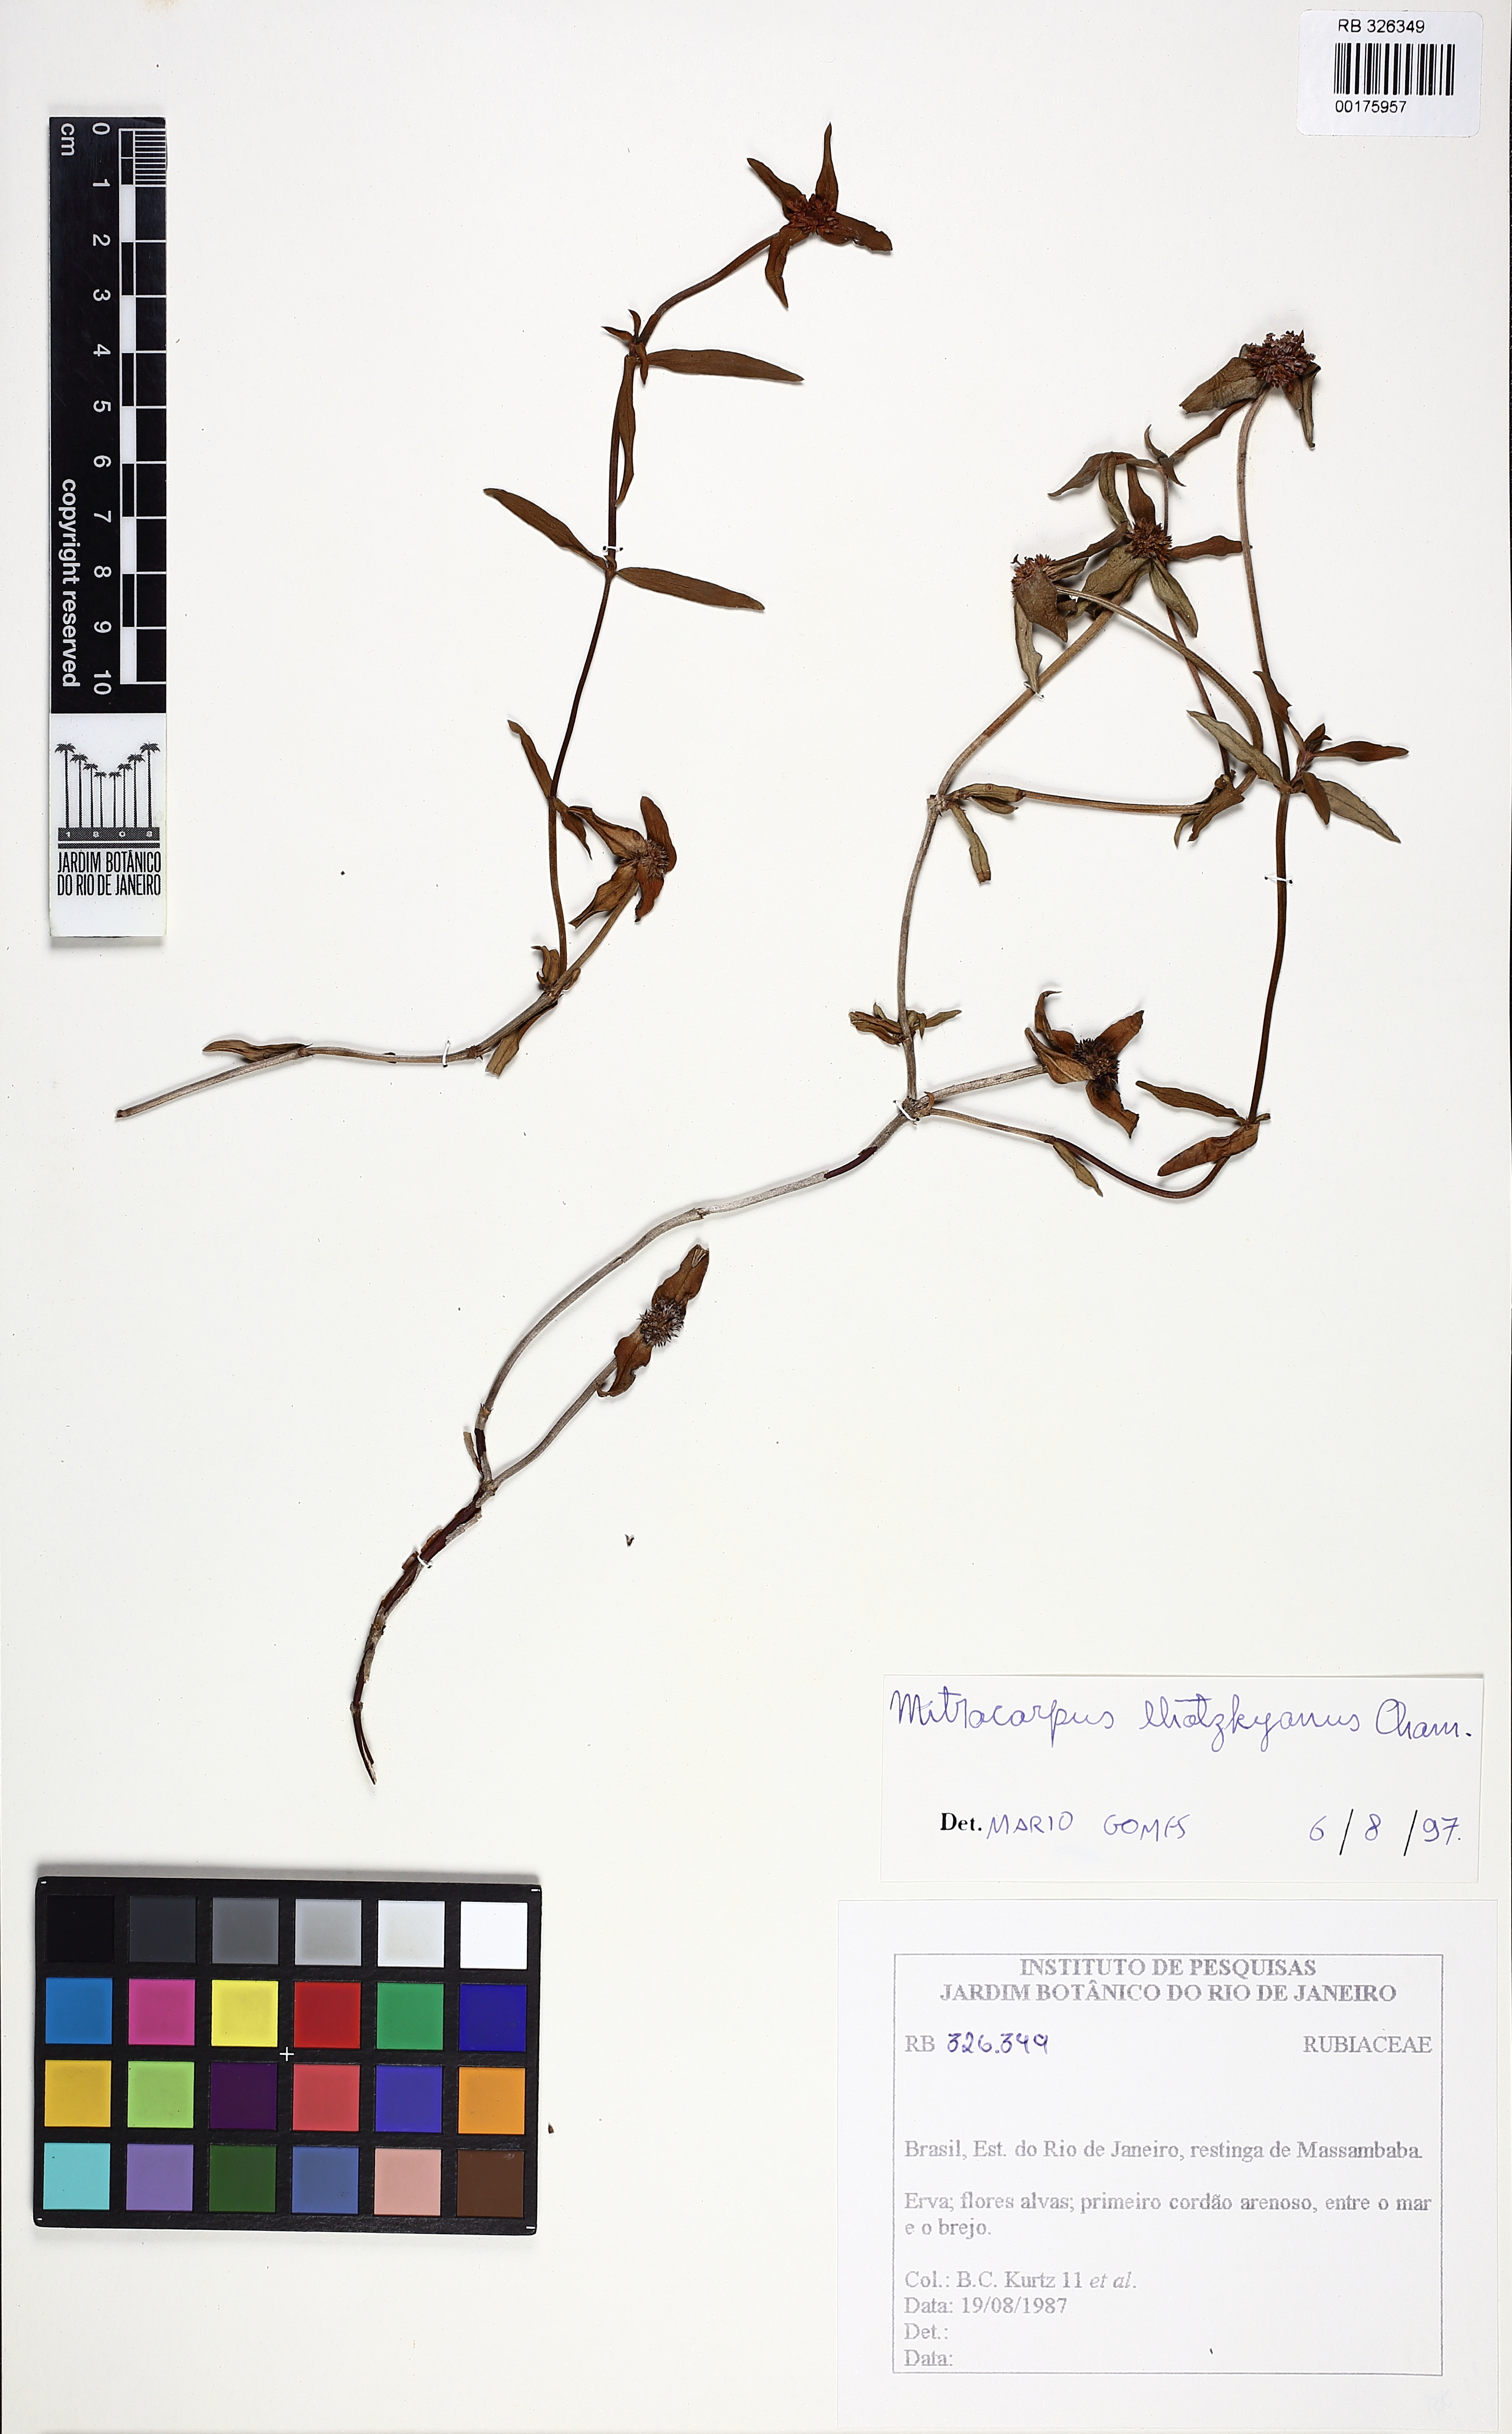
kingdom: Plantae
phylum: Tracheophyta
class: Magnoliopsida
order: Gentianales
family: Rubiaceae
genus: Mitracarpus
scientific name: Mitracarpus lhotzkyanus
